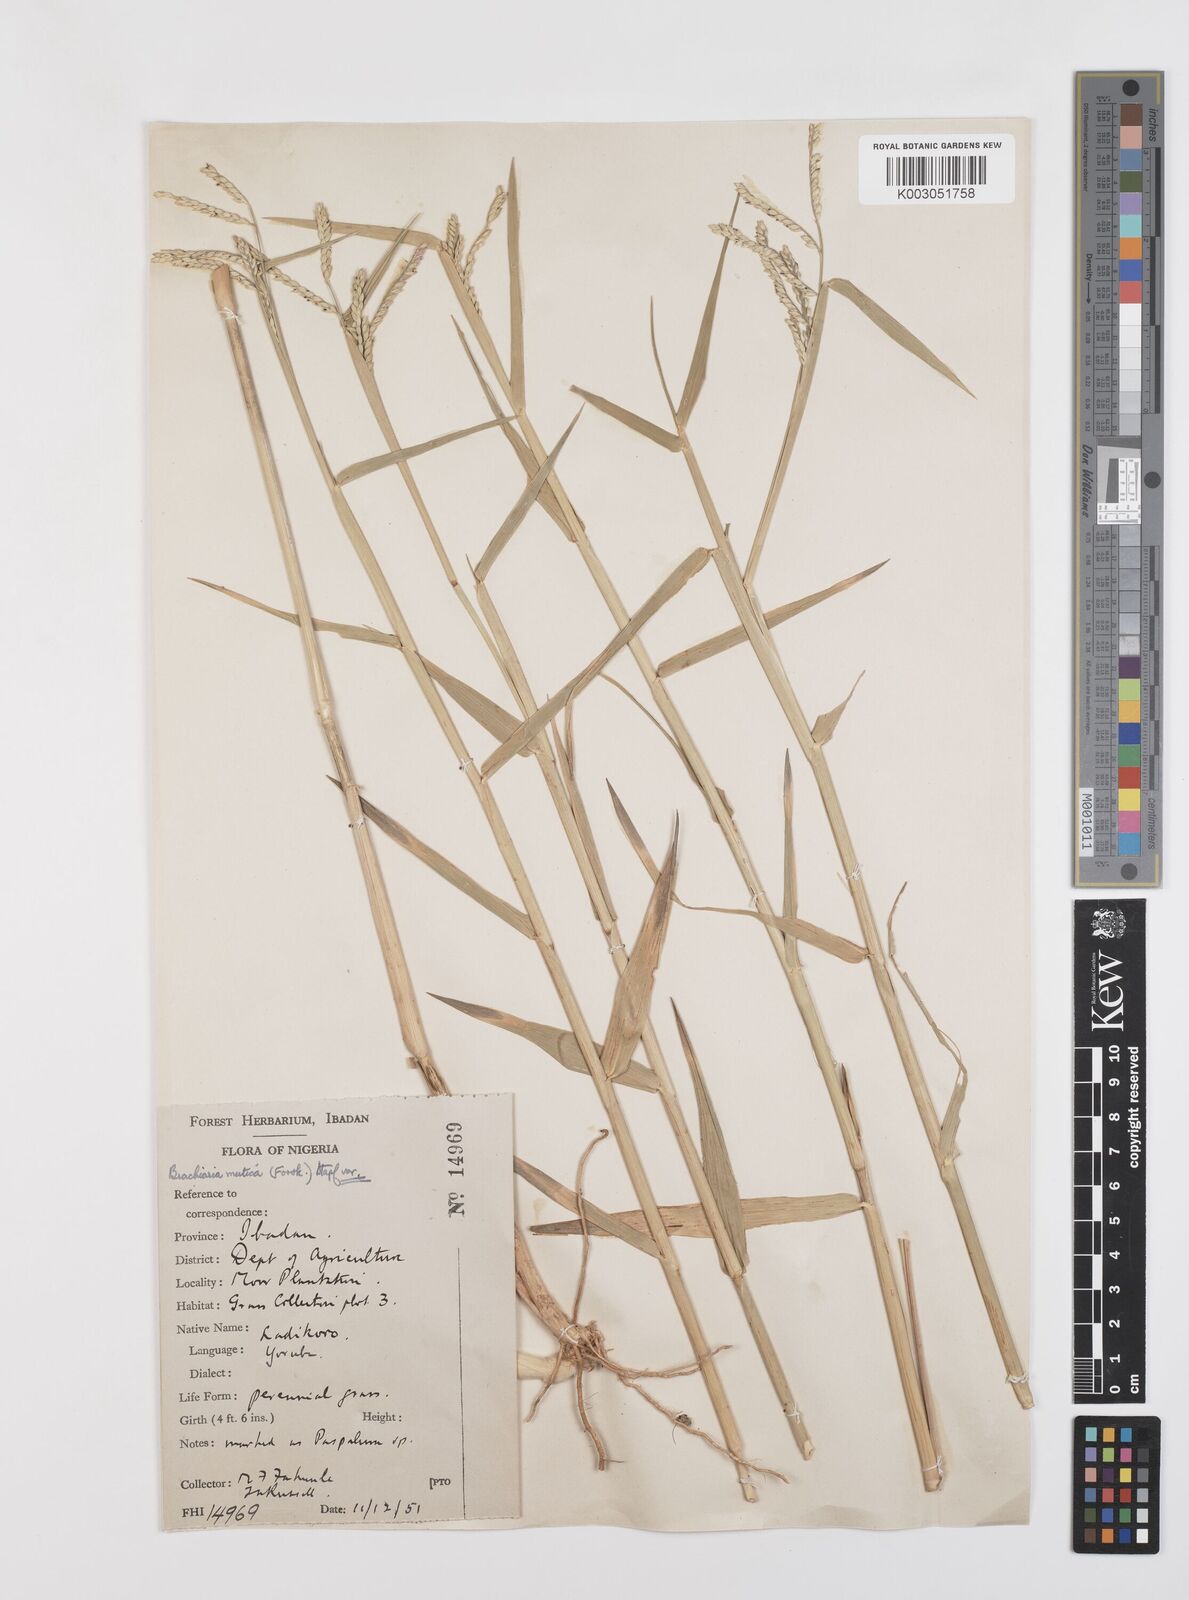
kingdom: Plantae
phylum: Tracheophyta
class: Liliopsida
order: Poales
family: Poaceae
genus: Urochloa
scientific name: Urochloa arrecta
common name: African signalgrass
